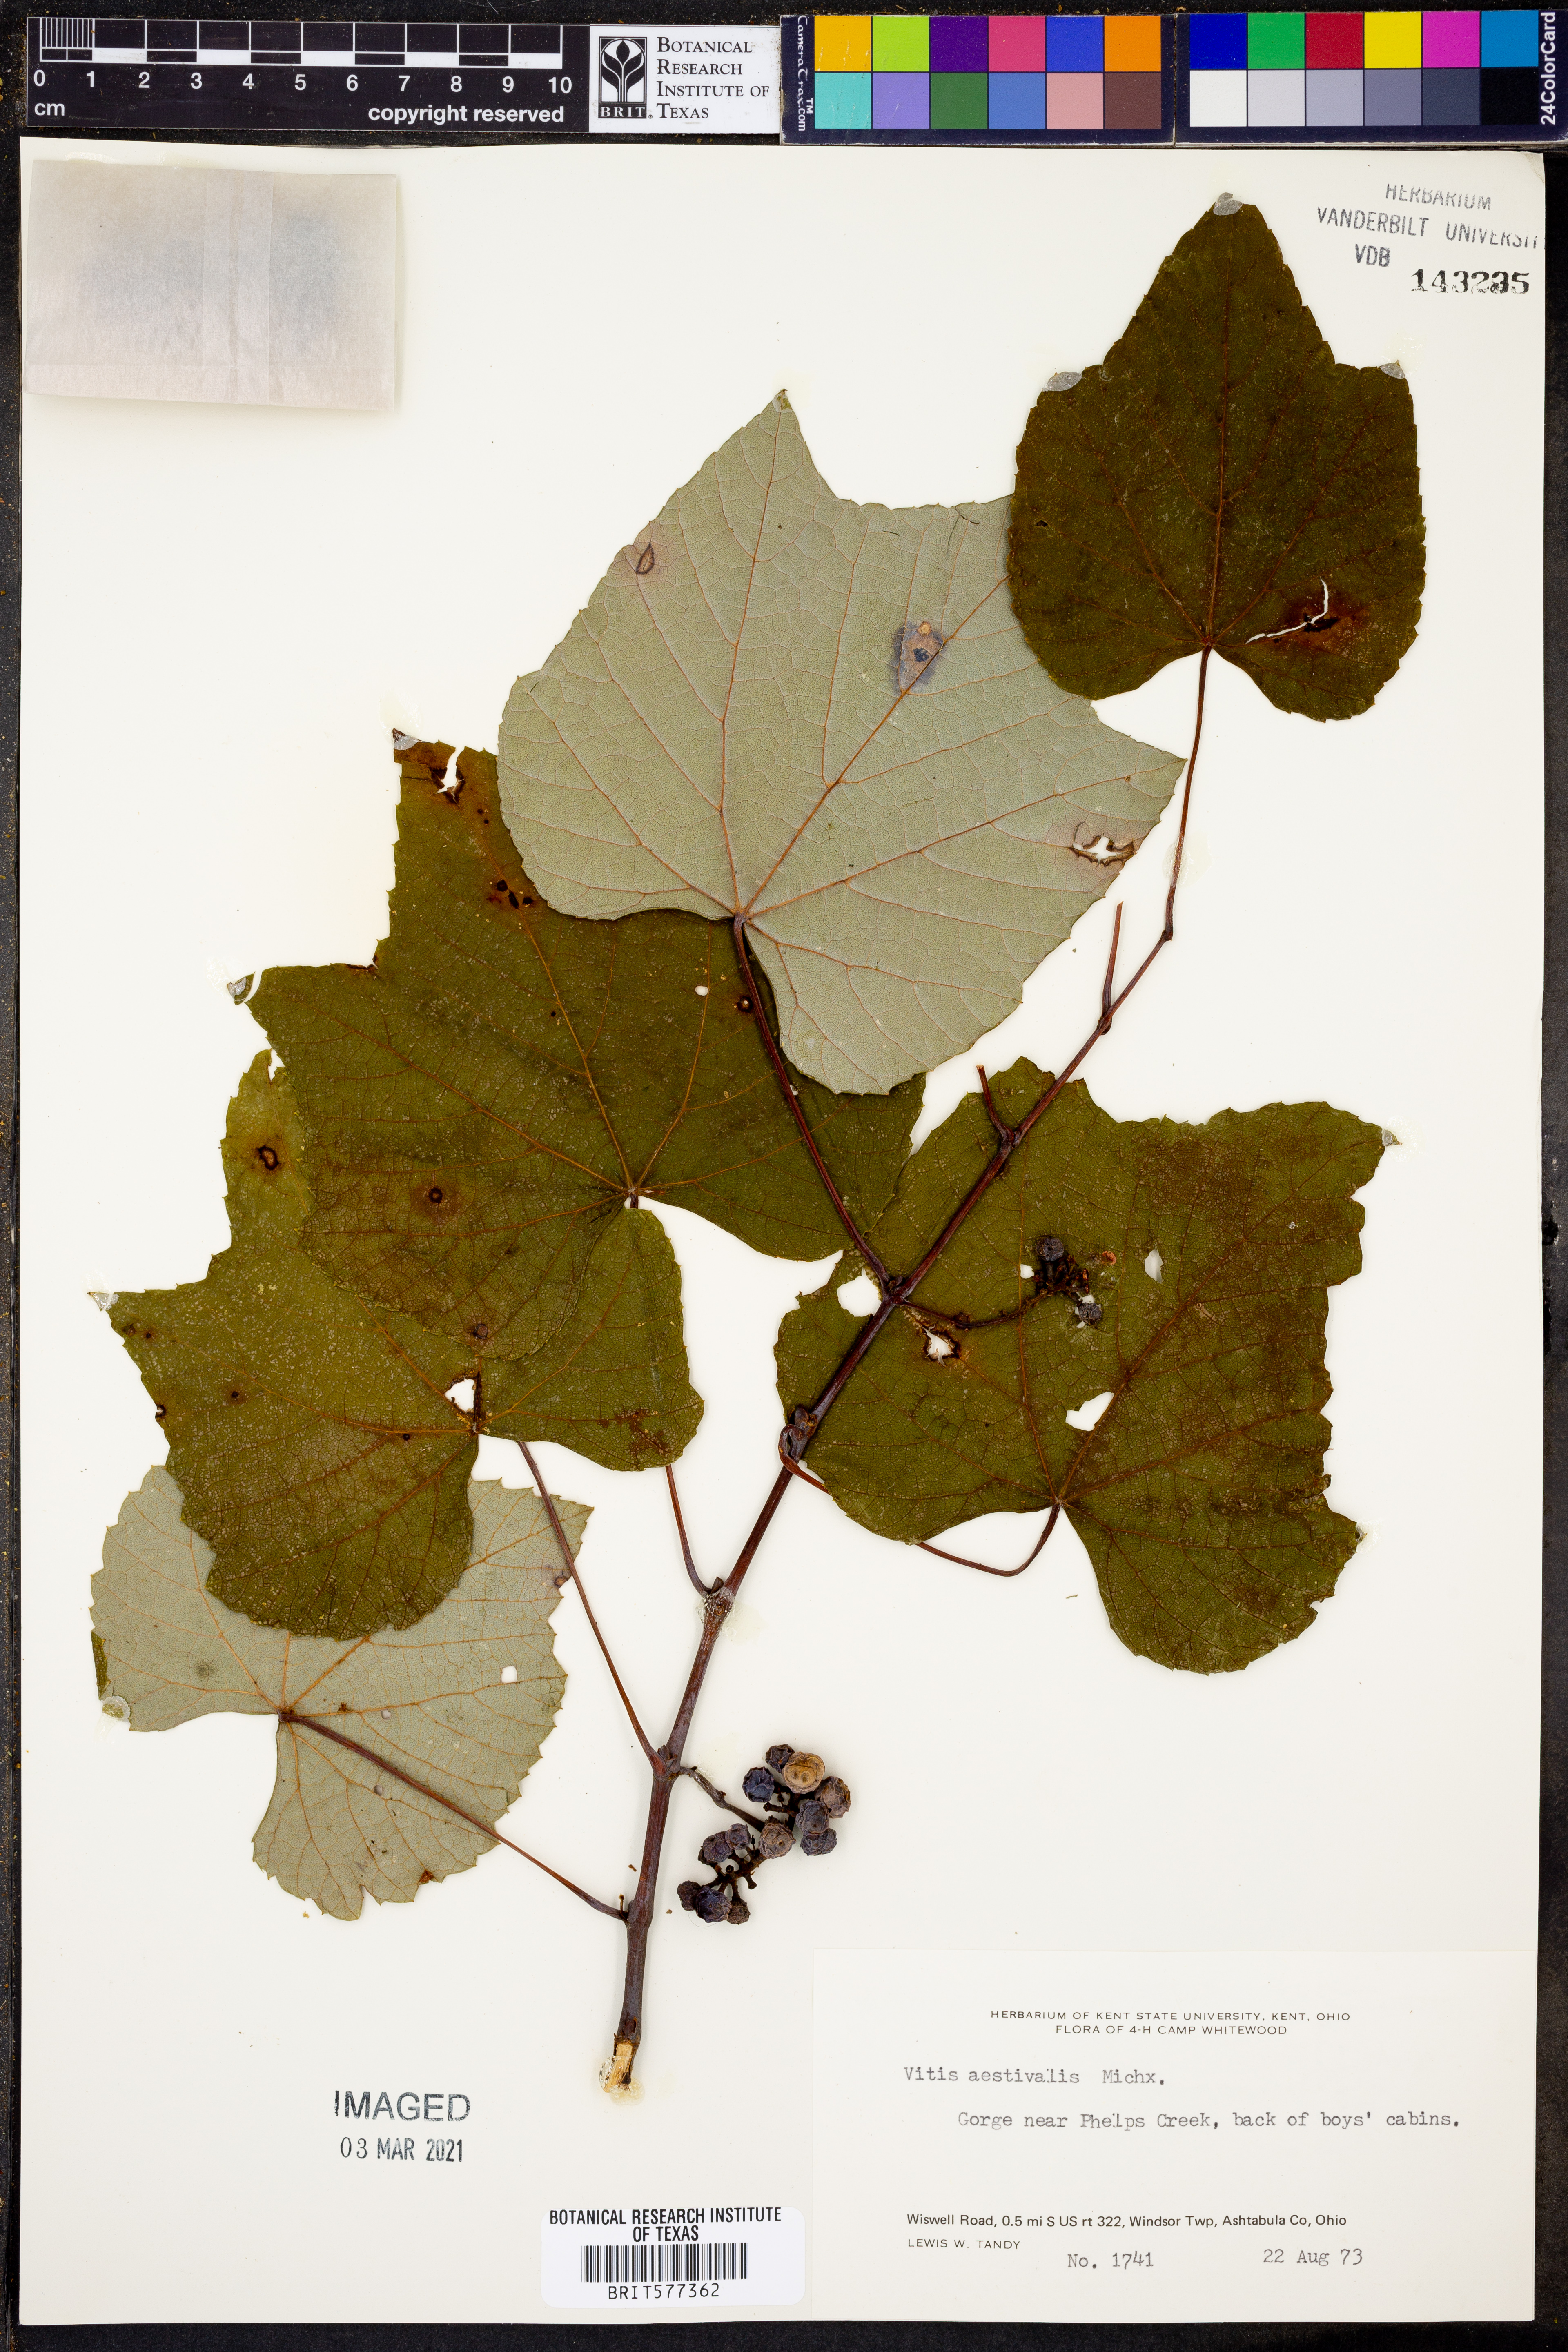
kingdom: Plantae
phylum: Tracheophyta
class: Magnoliopsida
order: Vitales
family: Vitaceae
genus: Vitis
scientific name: Vitis aestivalis
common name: Pigeon grape
